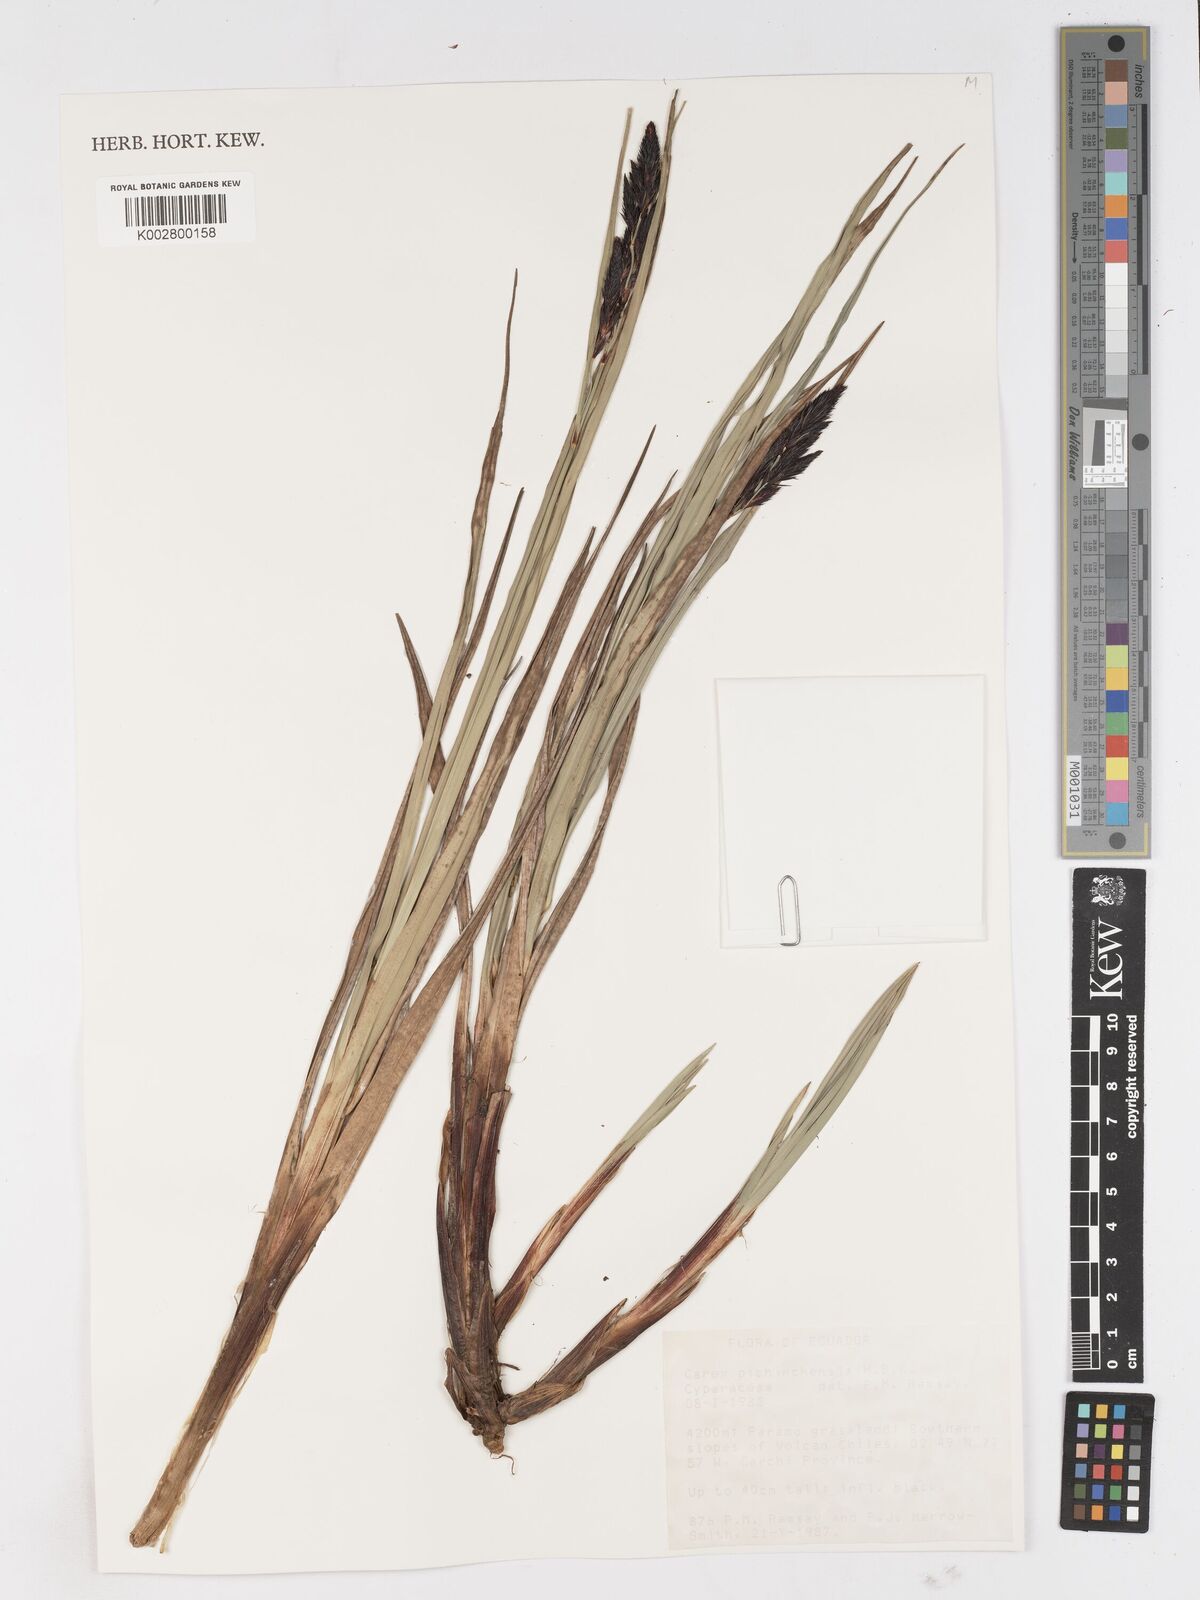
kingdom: Plantae
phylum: Tracheophyta
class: Liliopsida
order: Poales
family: Cyperaceae
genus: Carex
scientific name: Carex pichinchensis
